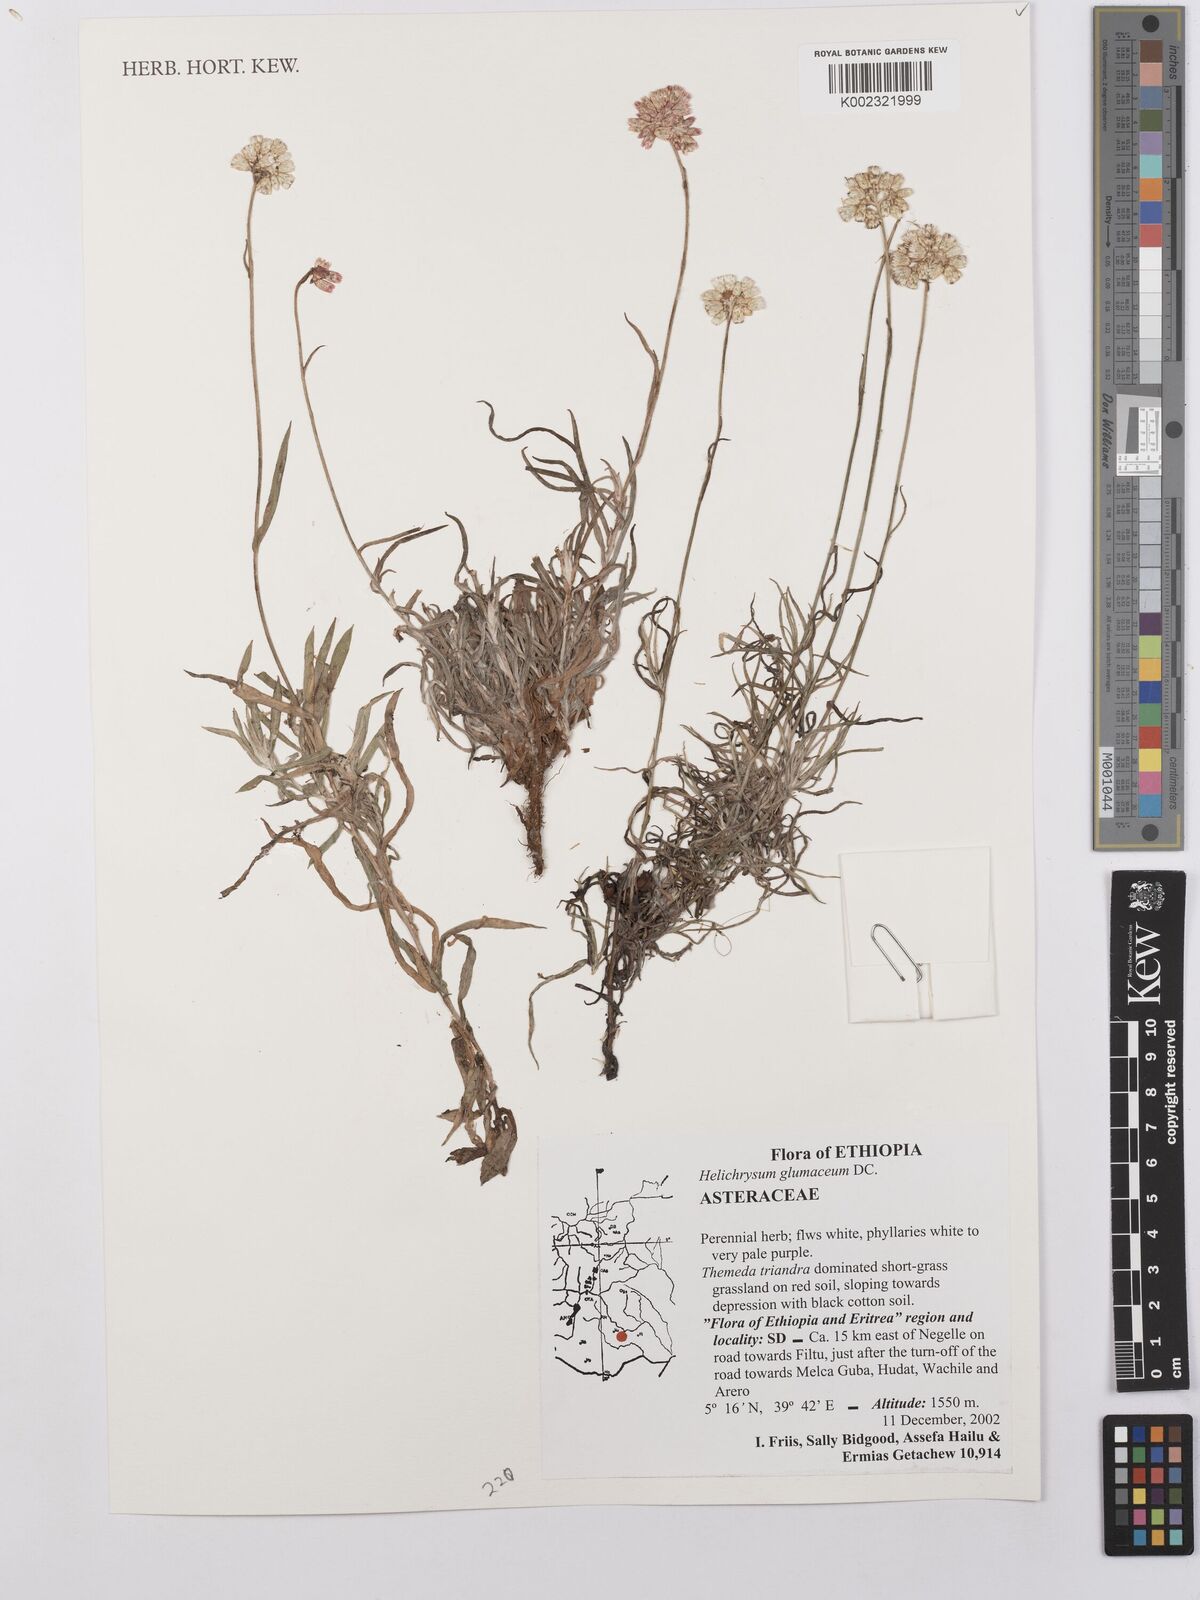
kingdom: Plantae
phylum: Tracheophyta
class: Magnoliopsida
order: Asterales
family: Asteraceae
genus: Helichrysum
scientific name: Helichrysum glumaceum
